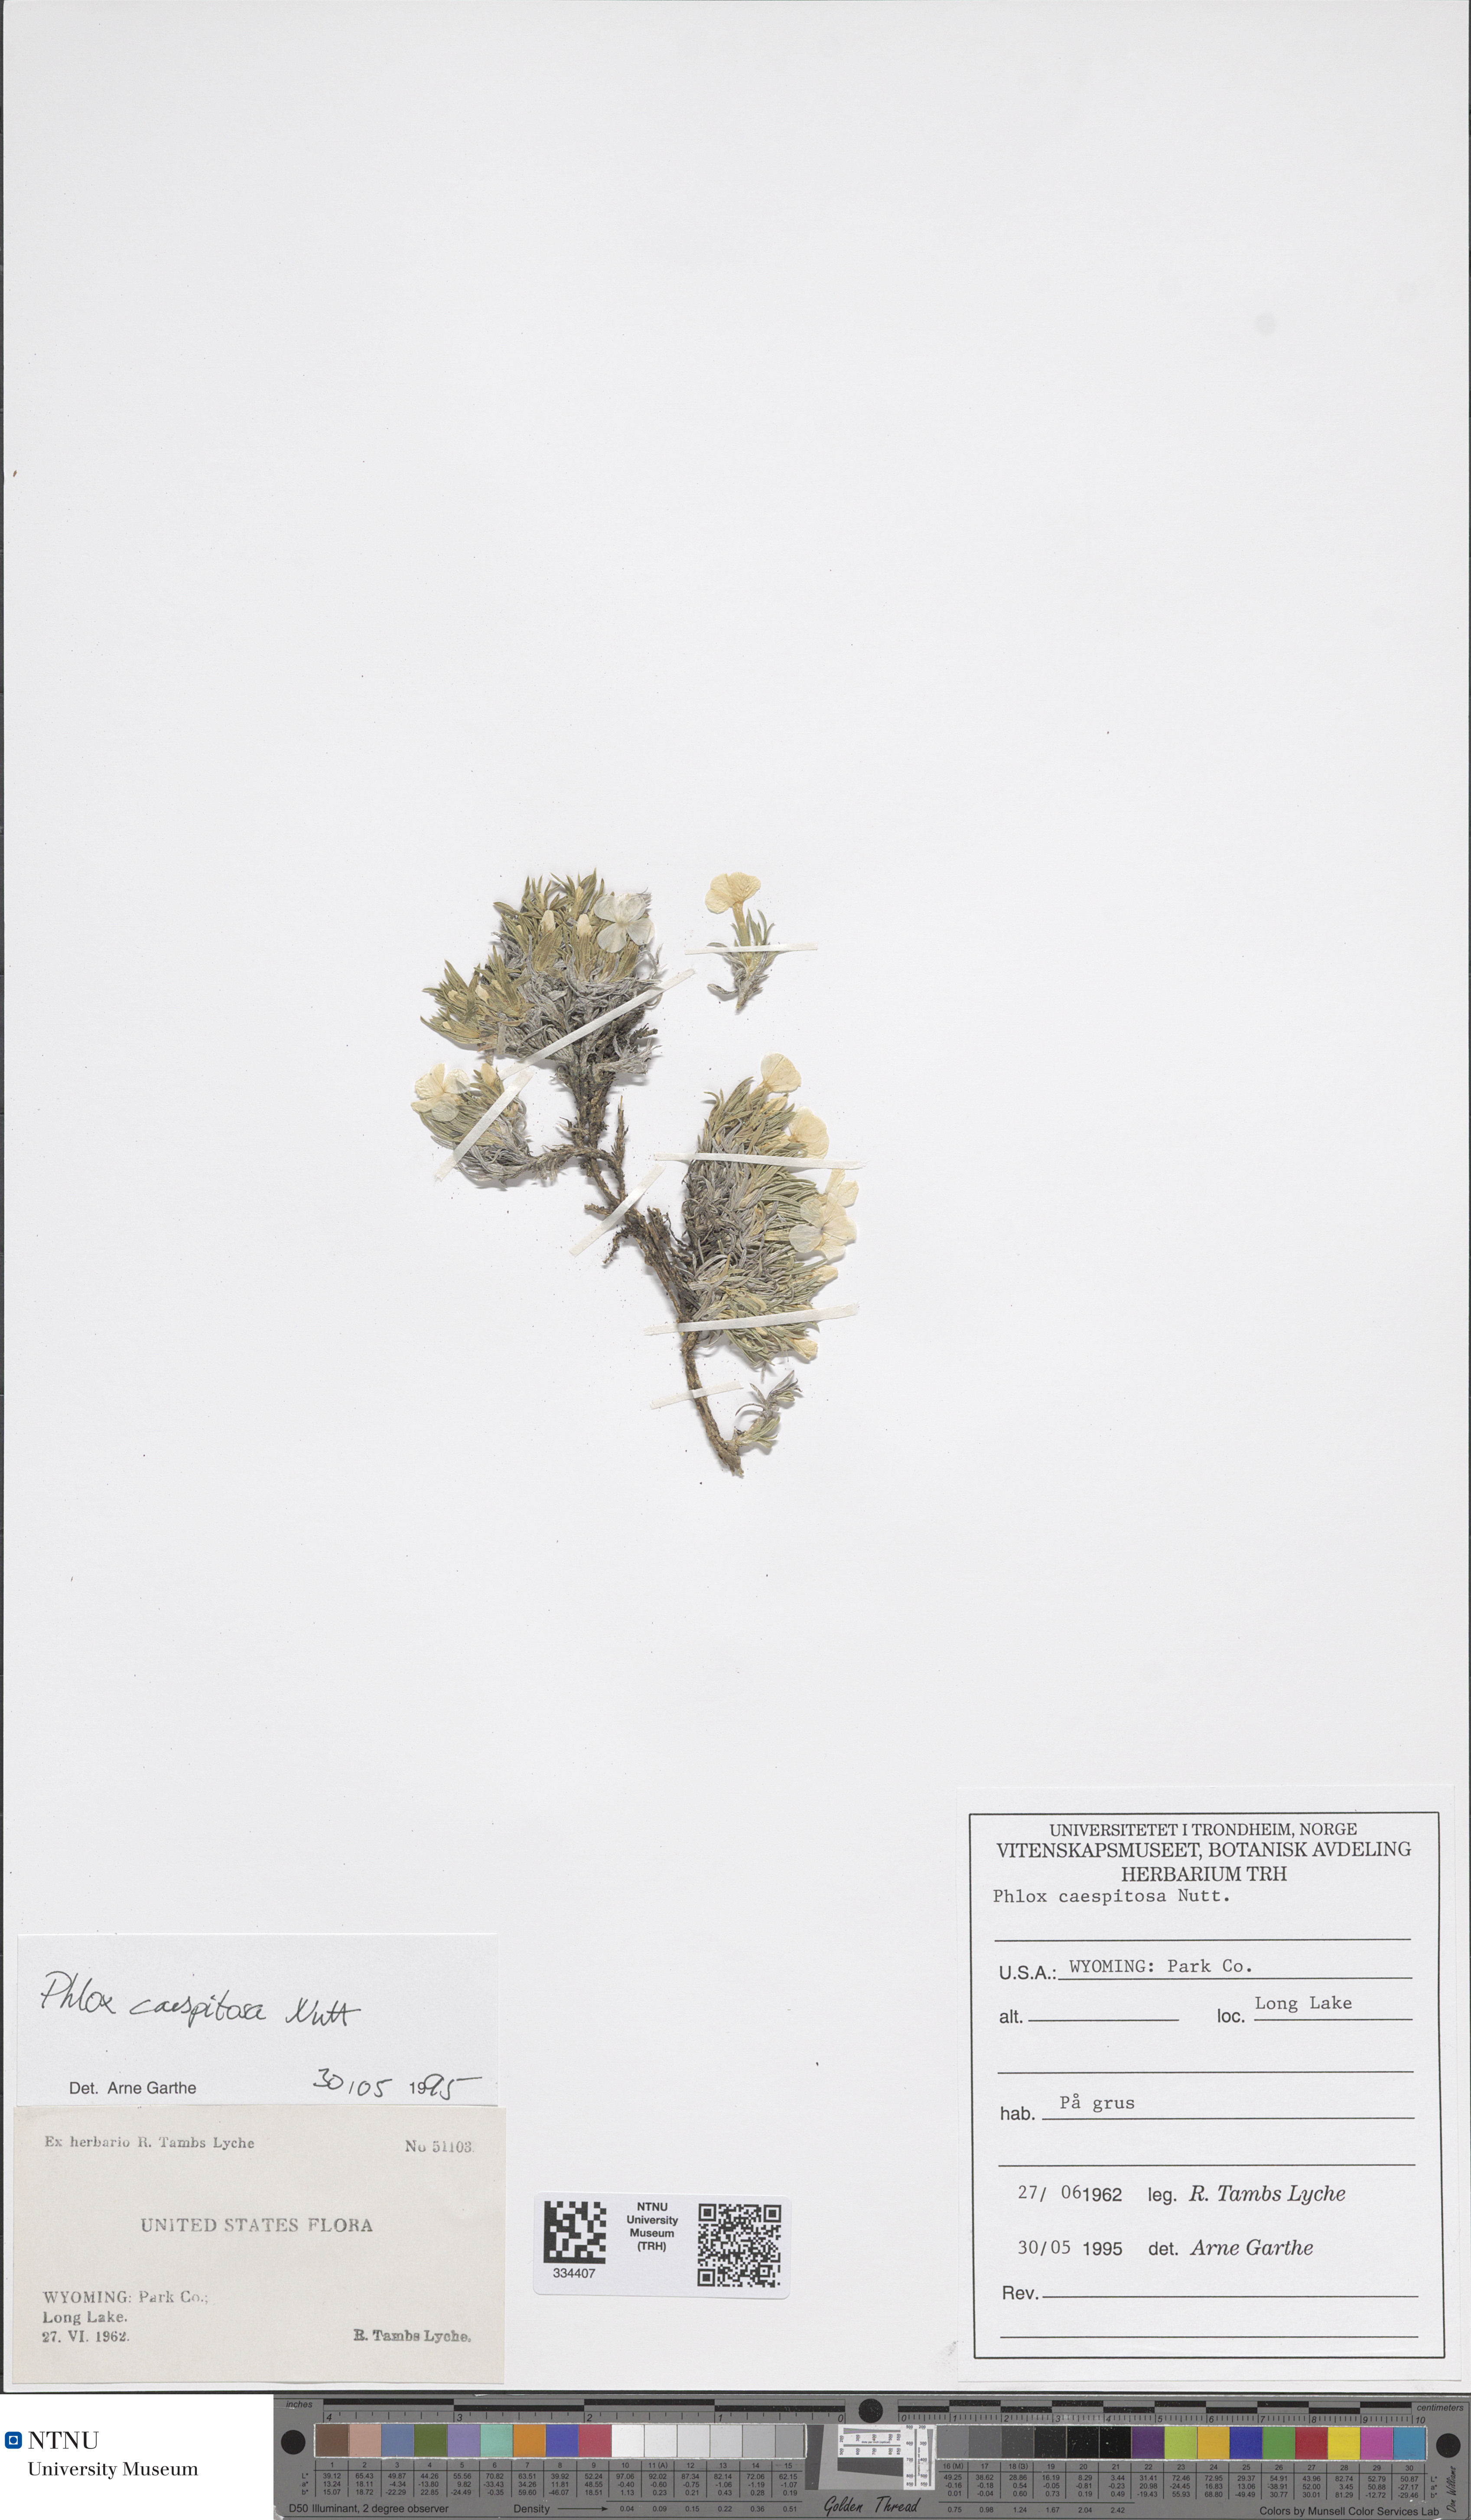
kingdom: Plantae
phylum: Tracheophyta
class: Magnoliopsida
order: Ericales
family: Polemoniaceae
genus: Phlox
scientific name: Phlox caespitosa
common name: Cushion phlox
